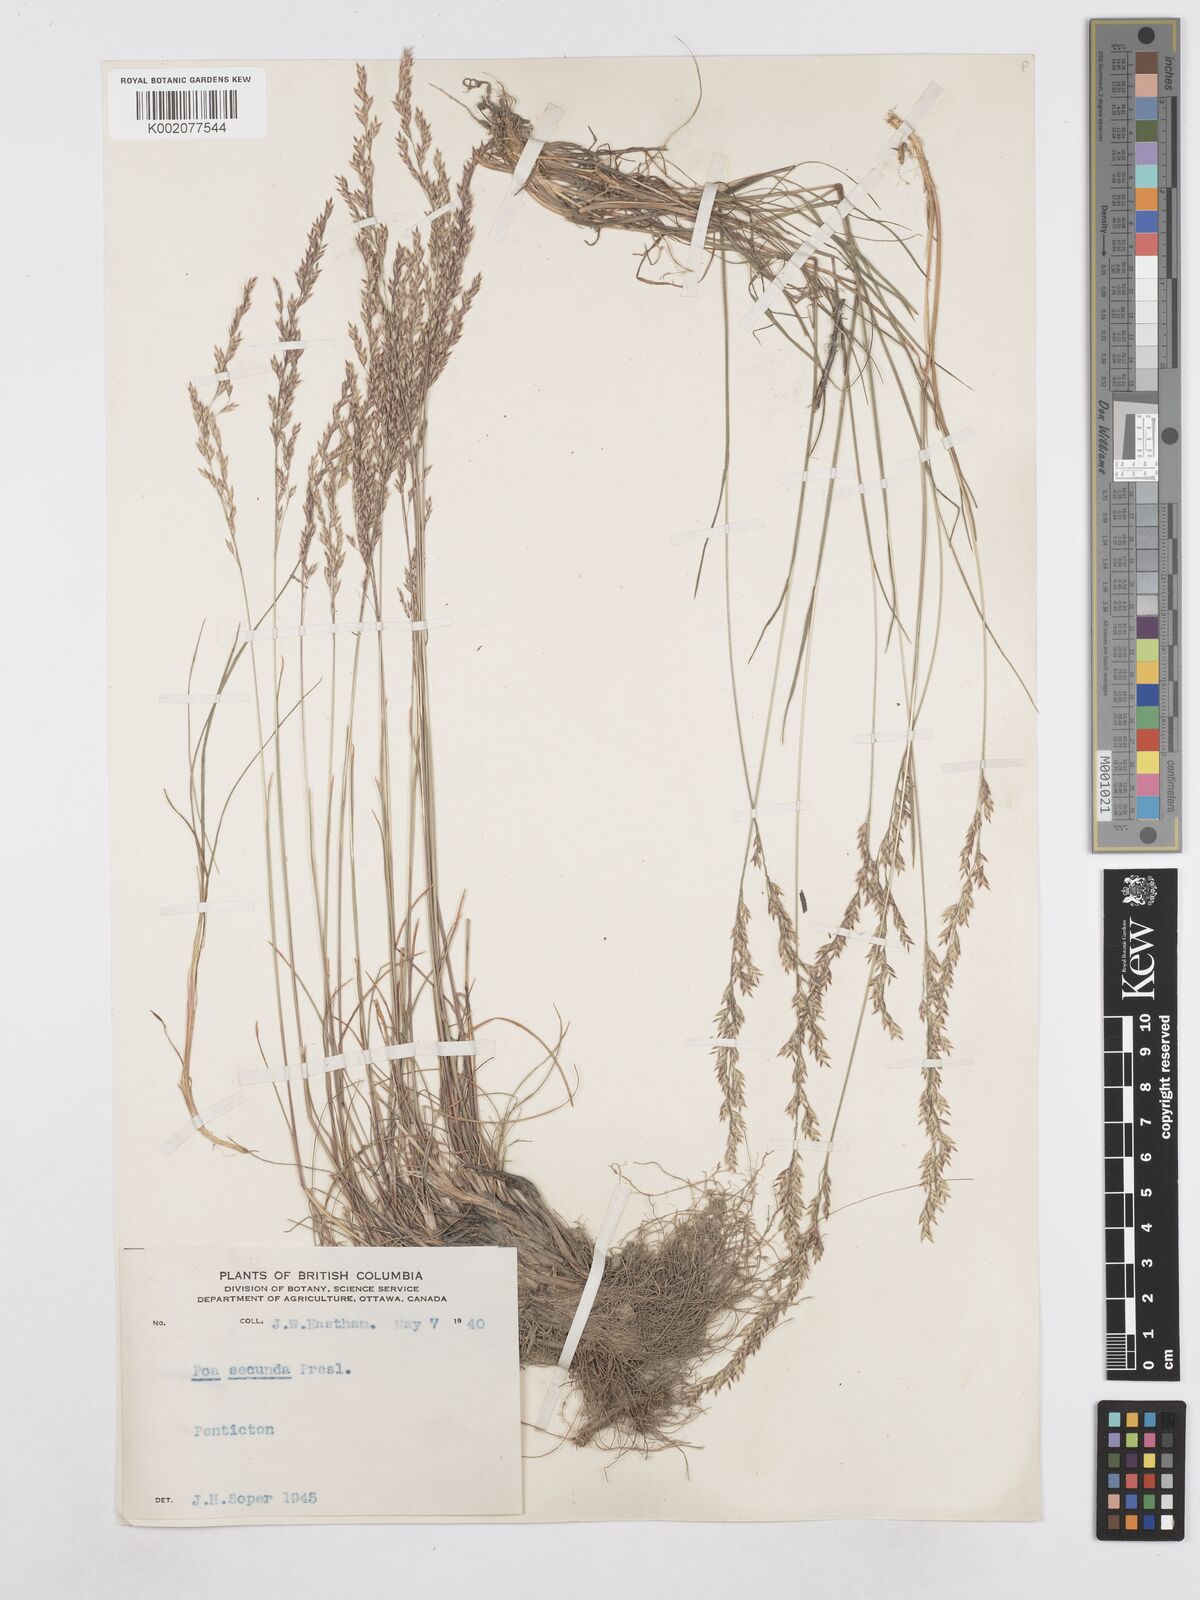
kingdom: Plantae
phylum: Tracheophyta
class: Liliopsida
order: Poales
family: Poaceae
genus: Poa
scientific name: Poa secunda
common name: Sandberg bluegrass
